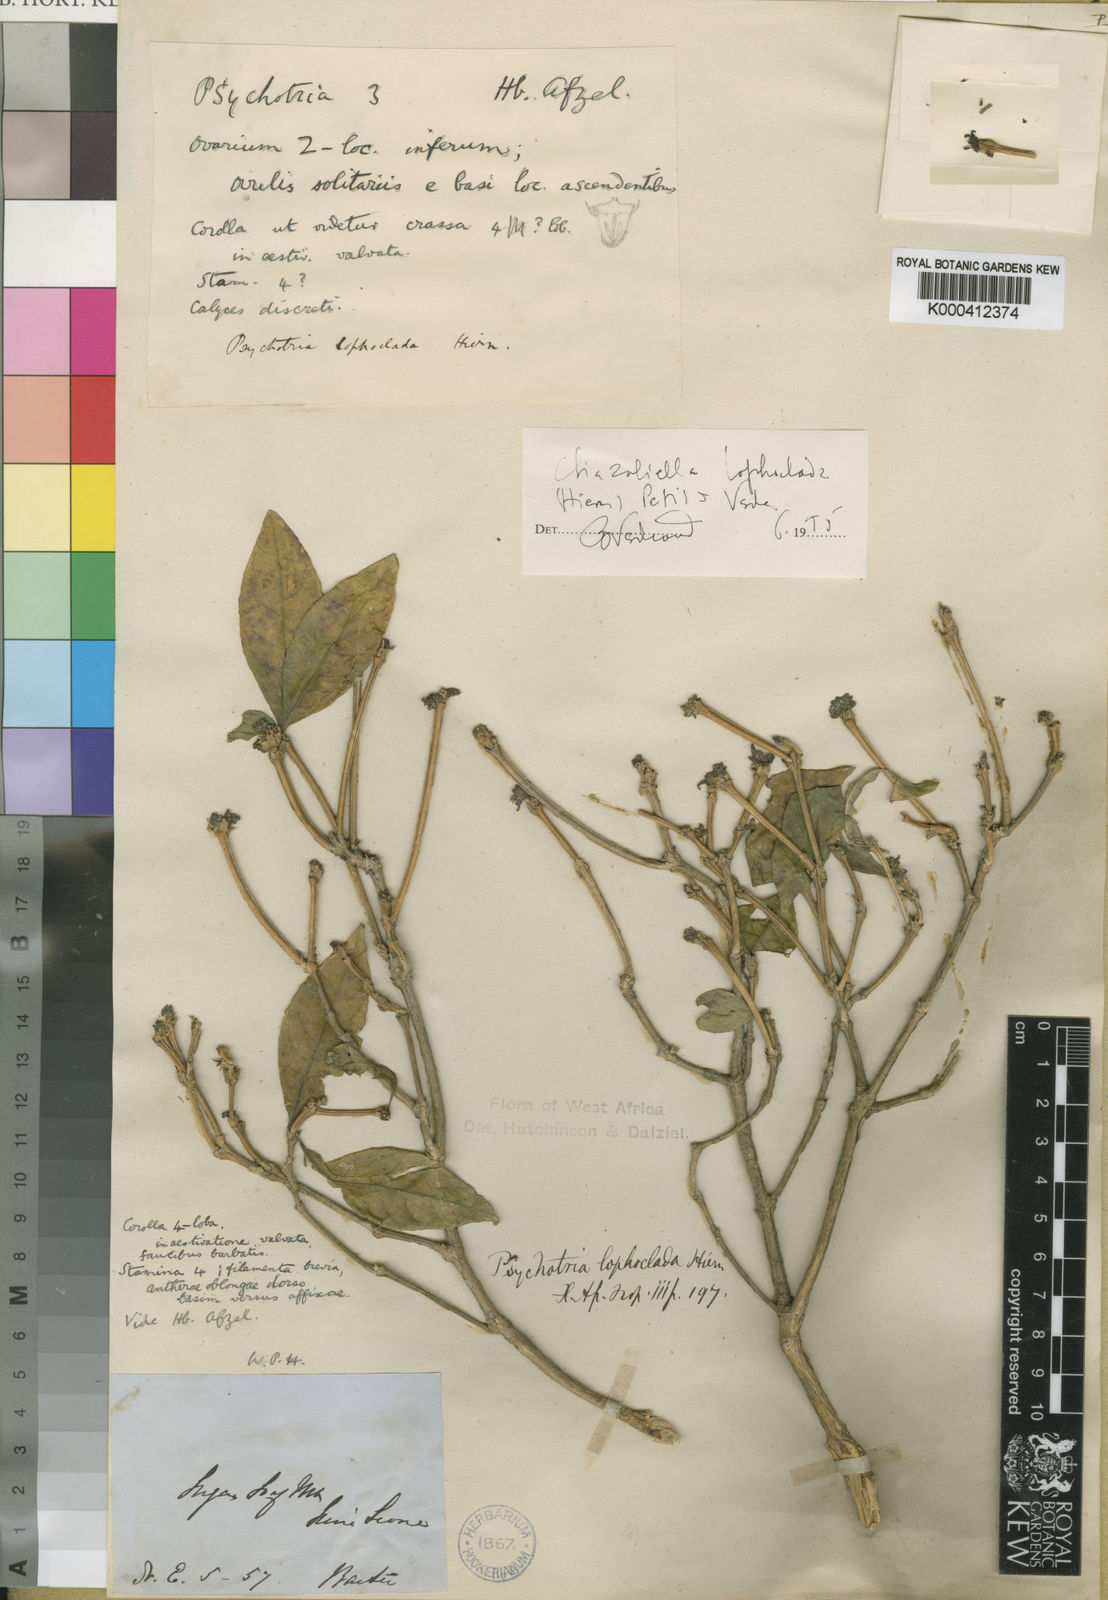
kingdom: Plantae
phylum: Tracheophyta
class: Magnoliopsida
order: Gentianales
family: Rubiaceae
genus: Eumachia
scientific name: Eumachia lophoclada
